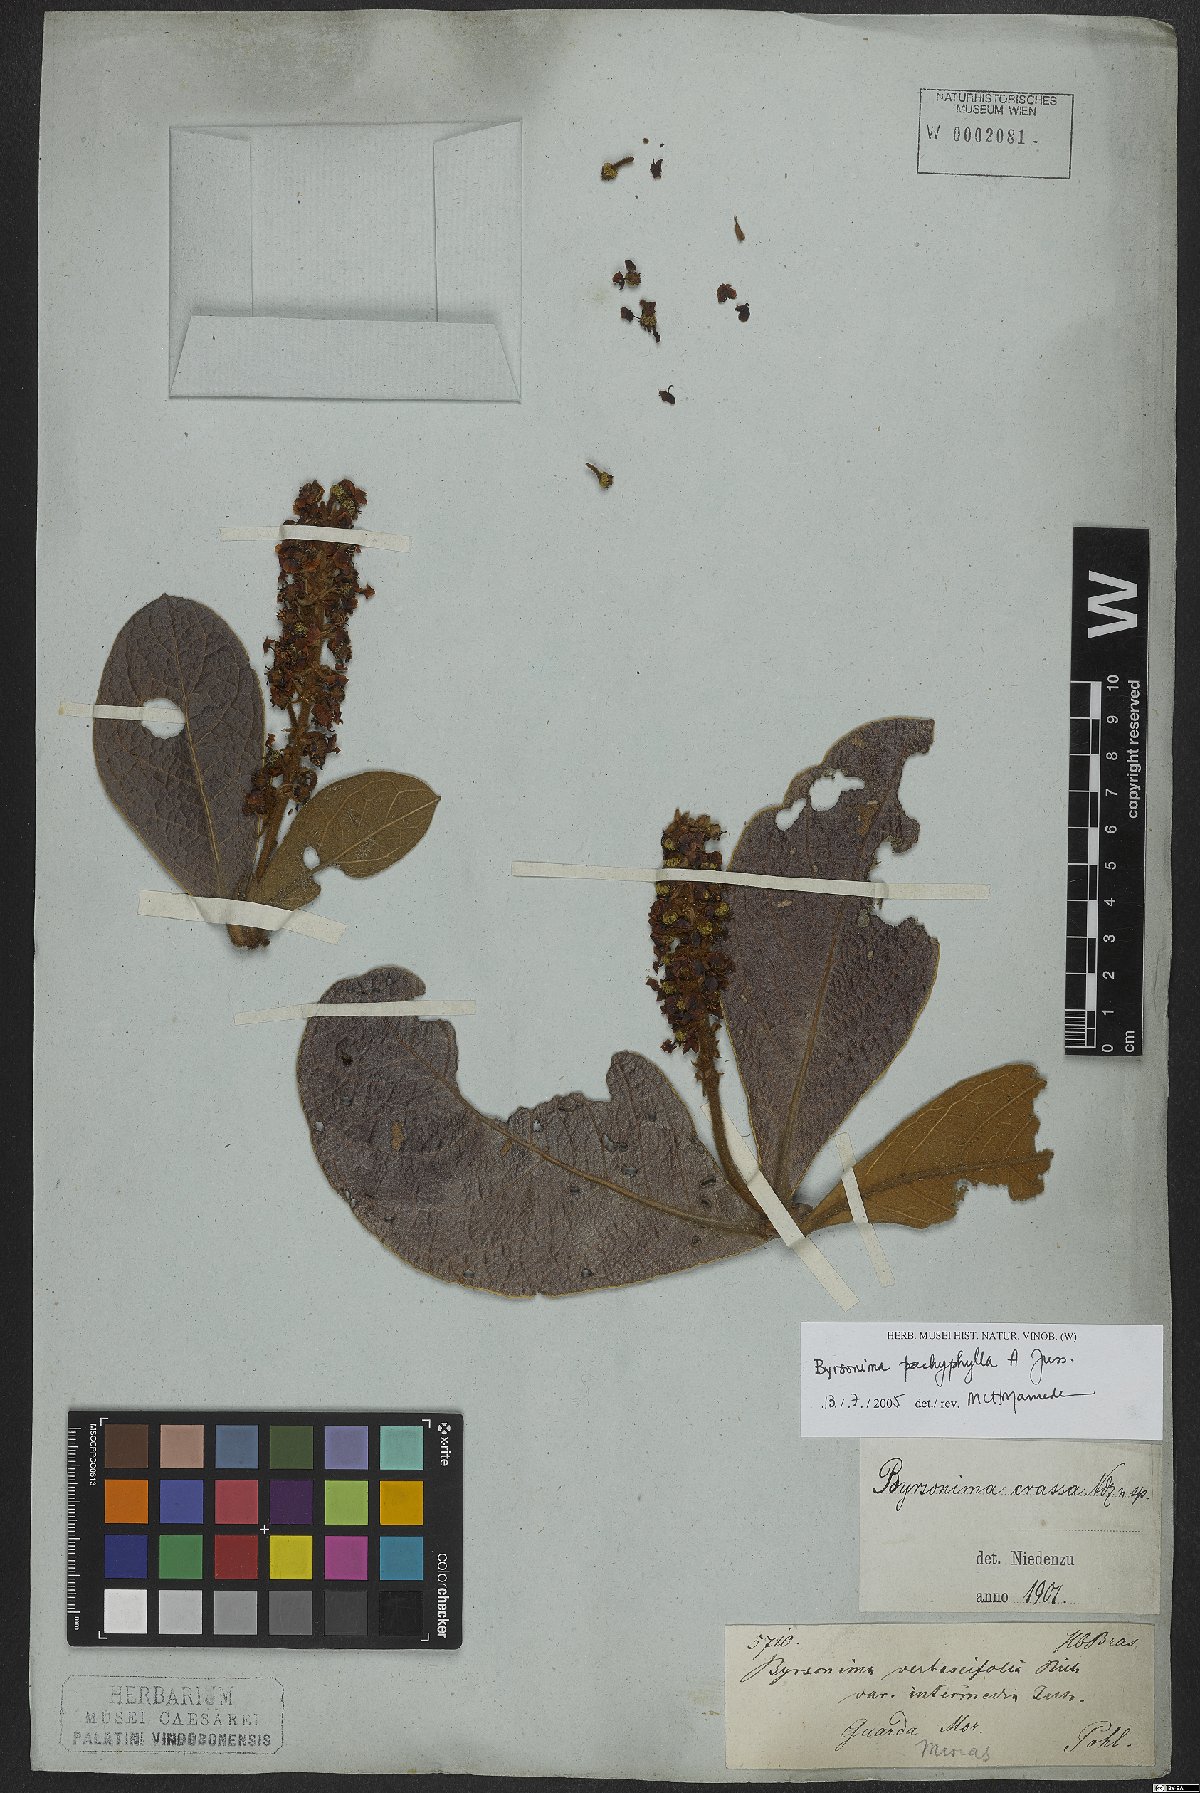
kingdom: Plantae
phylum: Tracheophyta
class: Magnoliopsida
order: Malpighiales
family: Malpighiaceae
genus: Byrsonima
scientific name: Byrsonima pachyphylla
